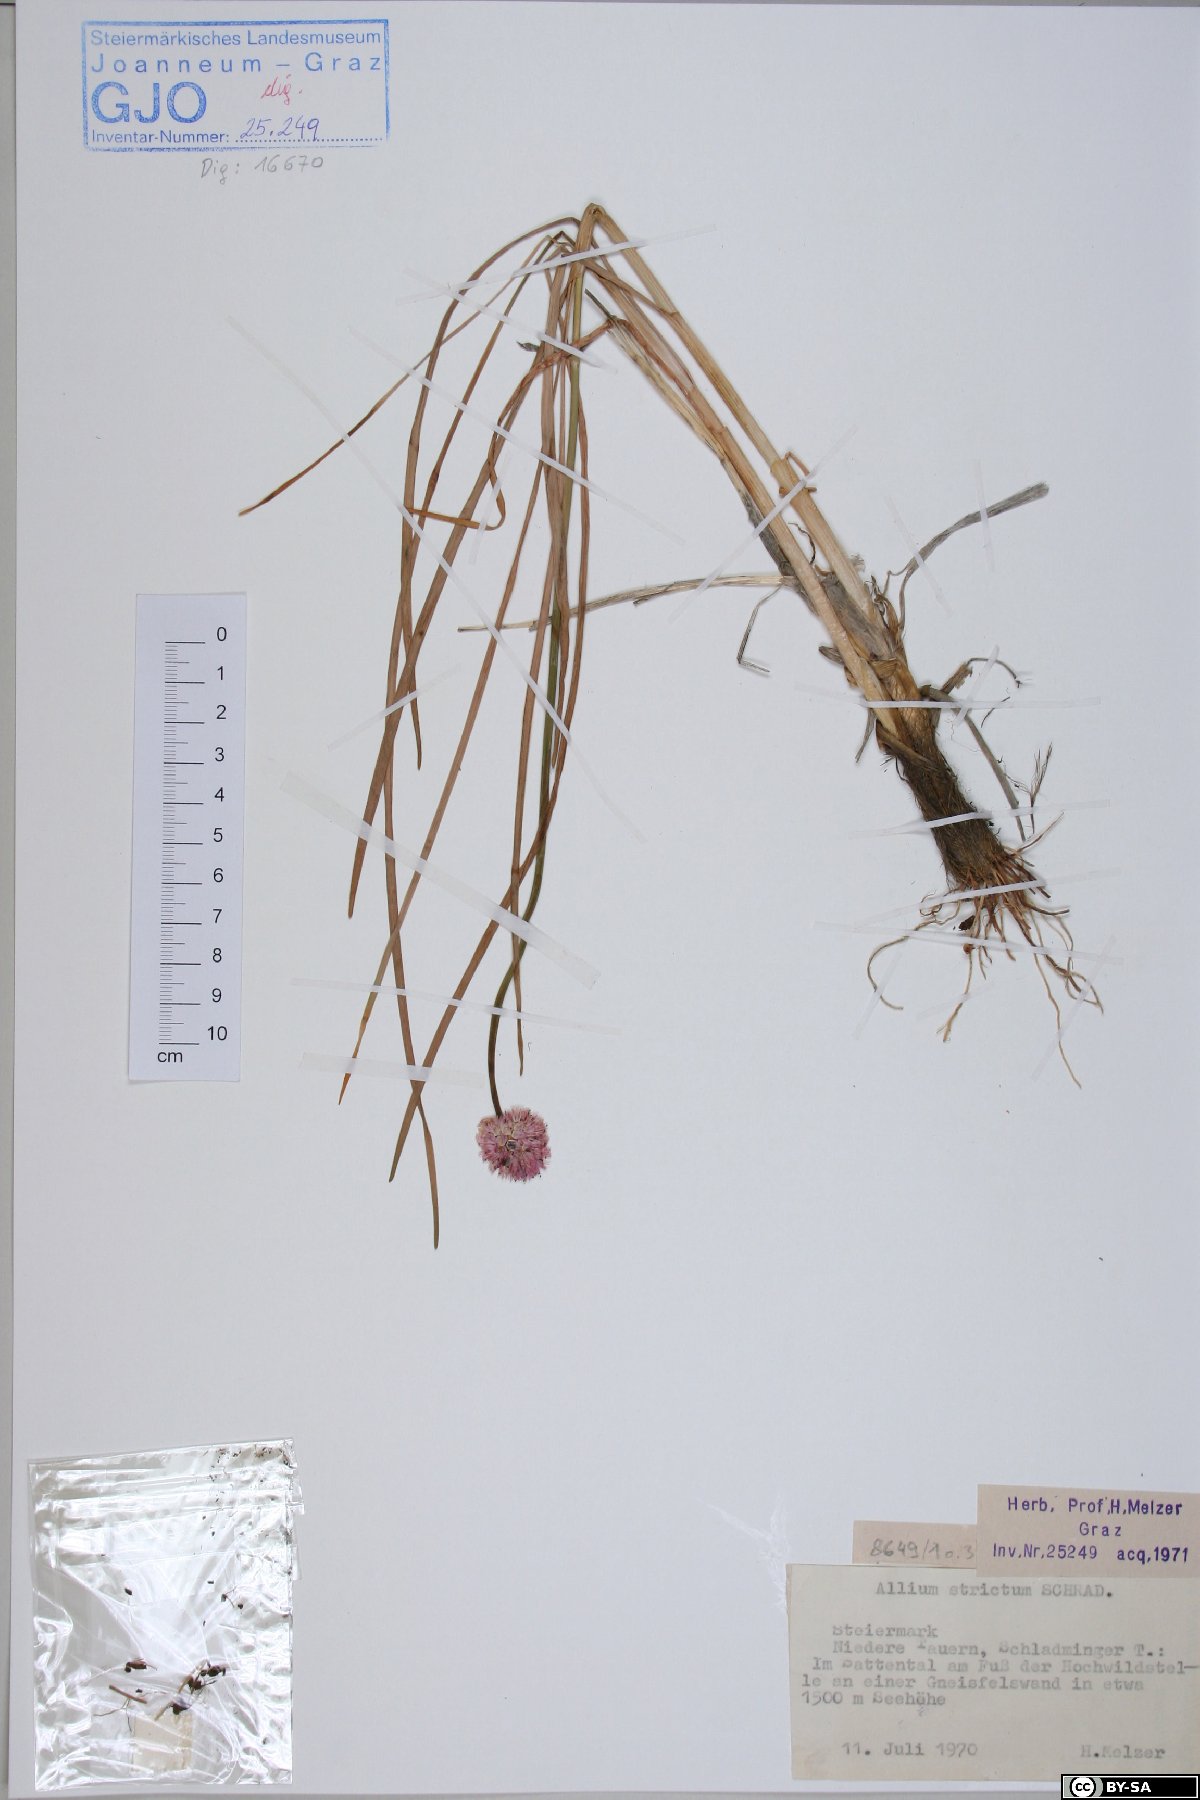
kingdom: Plantae
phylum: Tracheophyta
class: Liliopsida
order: Asparagales
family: Amaryllidaceae
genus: Allium
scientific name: Allium strictum
